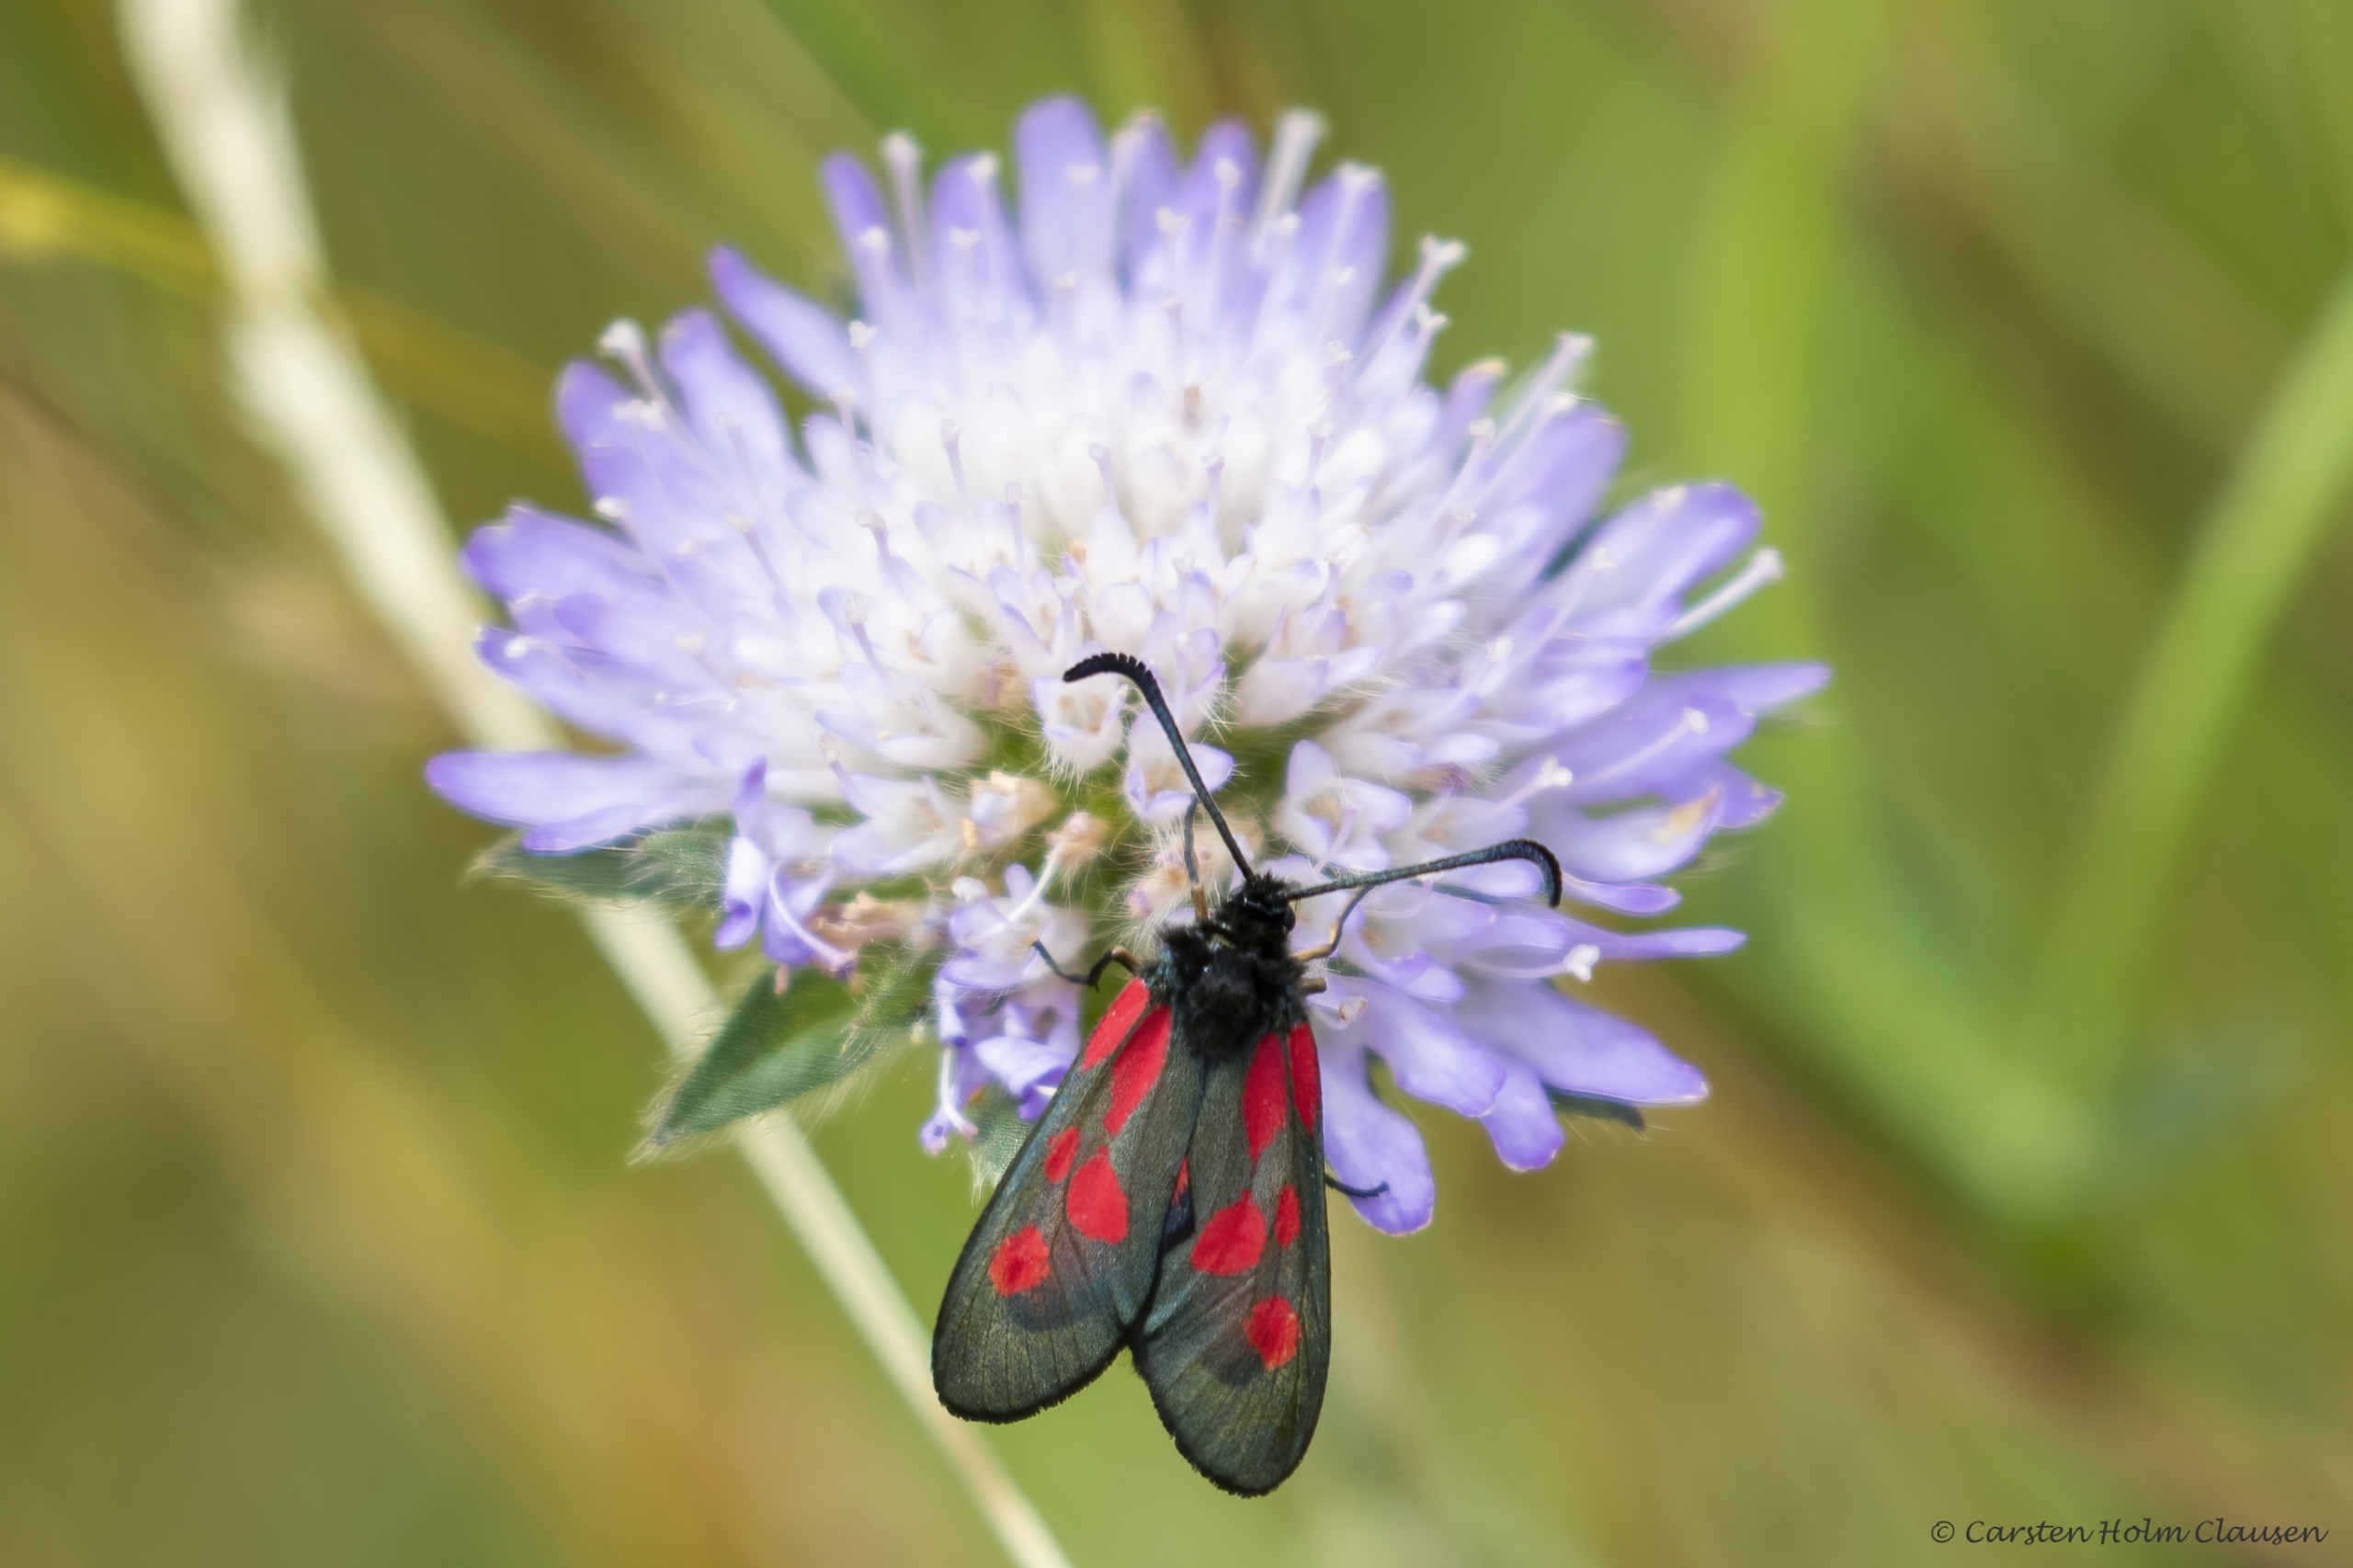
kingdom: Animalia
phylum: Arthropoda
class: Insecta
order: Lepidoptera
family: Zygaenidae
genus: Zygaena
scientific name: Zygaena lonicerae
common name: Femplettet køllesværmer
